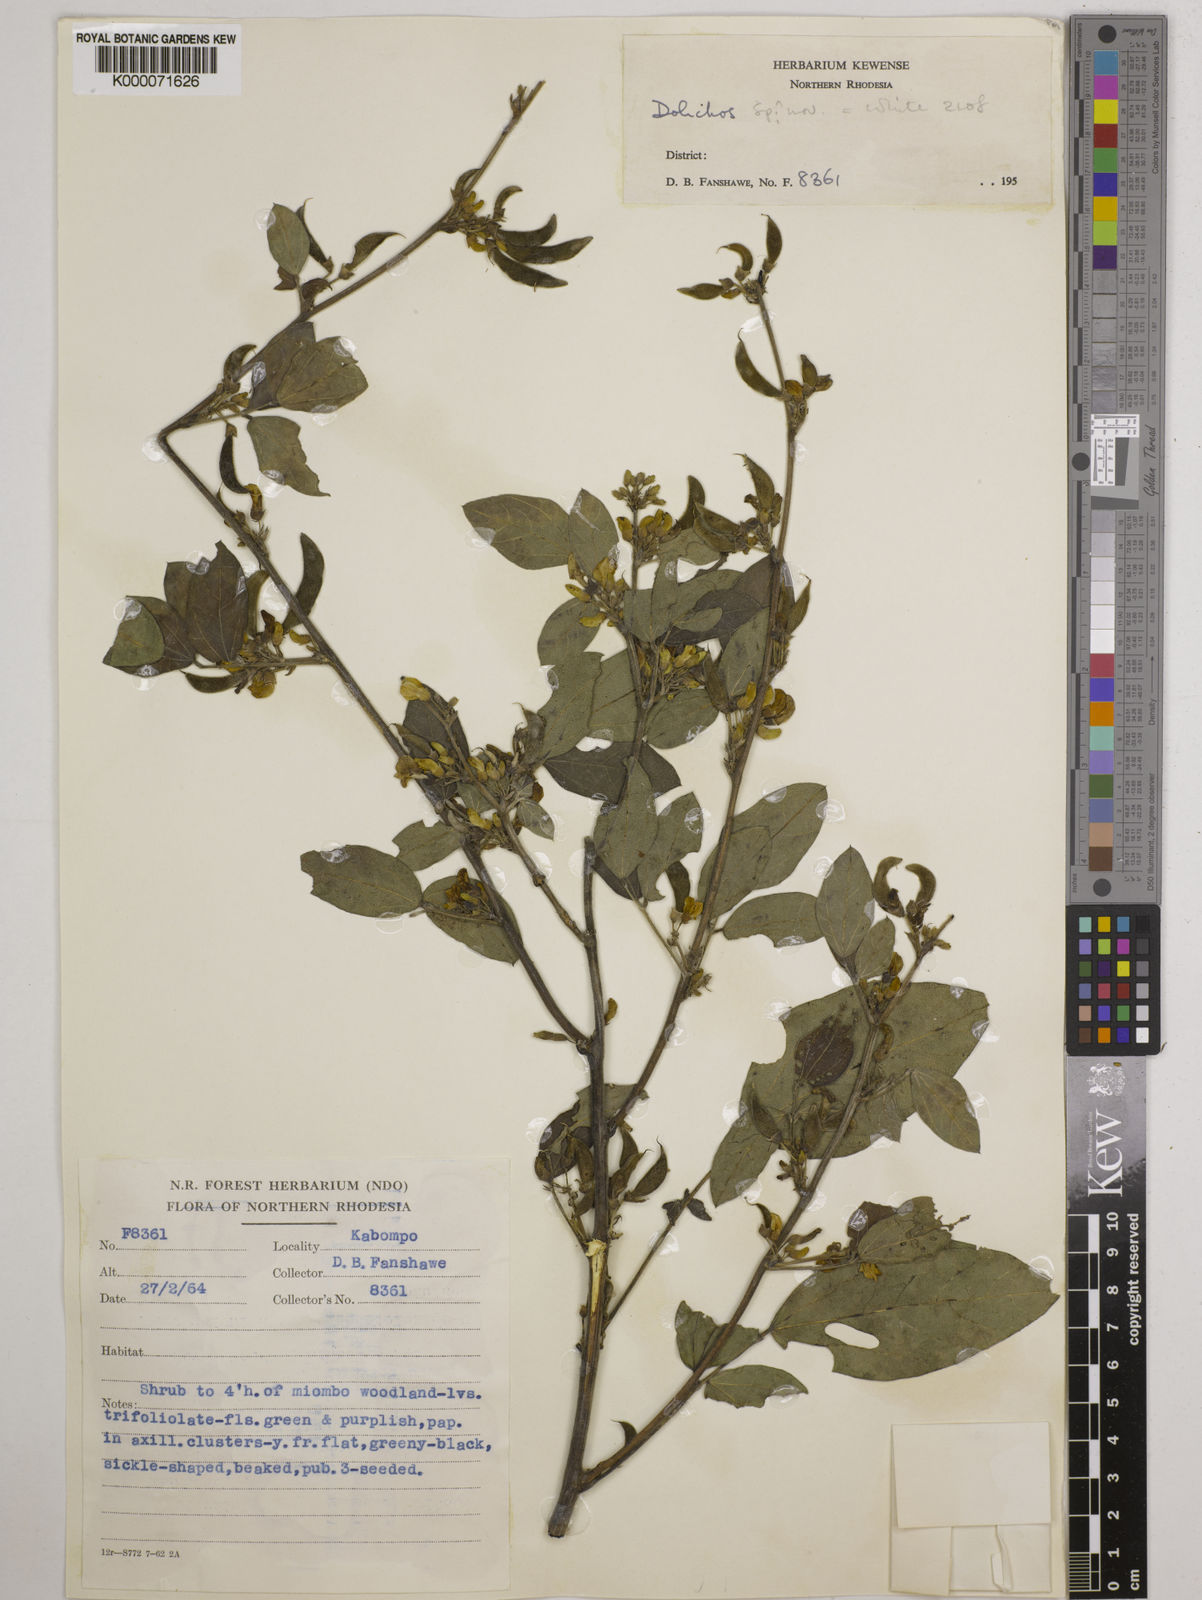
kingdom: Plantae
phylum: Tracheophyta
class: Magnoliopsida
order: Fabales
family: Fabaceae
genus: Dolichos
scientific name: Dolichos brevidentatus
